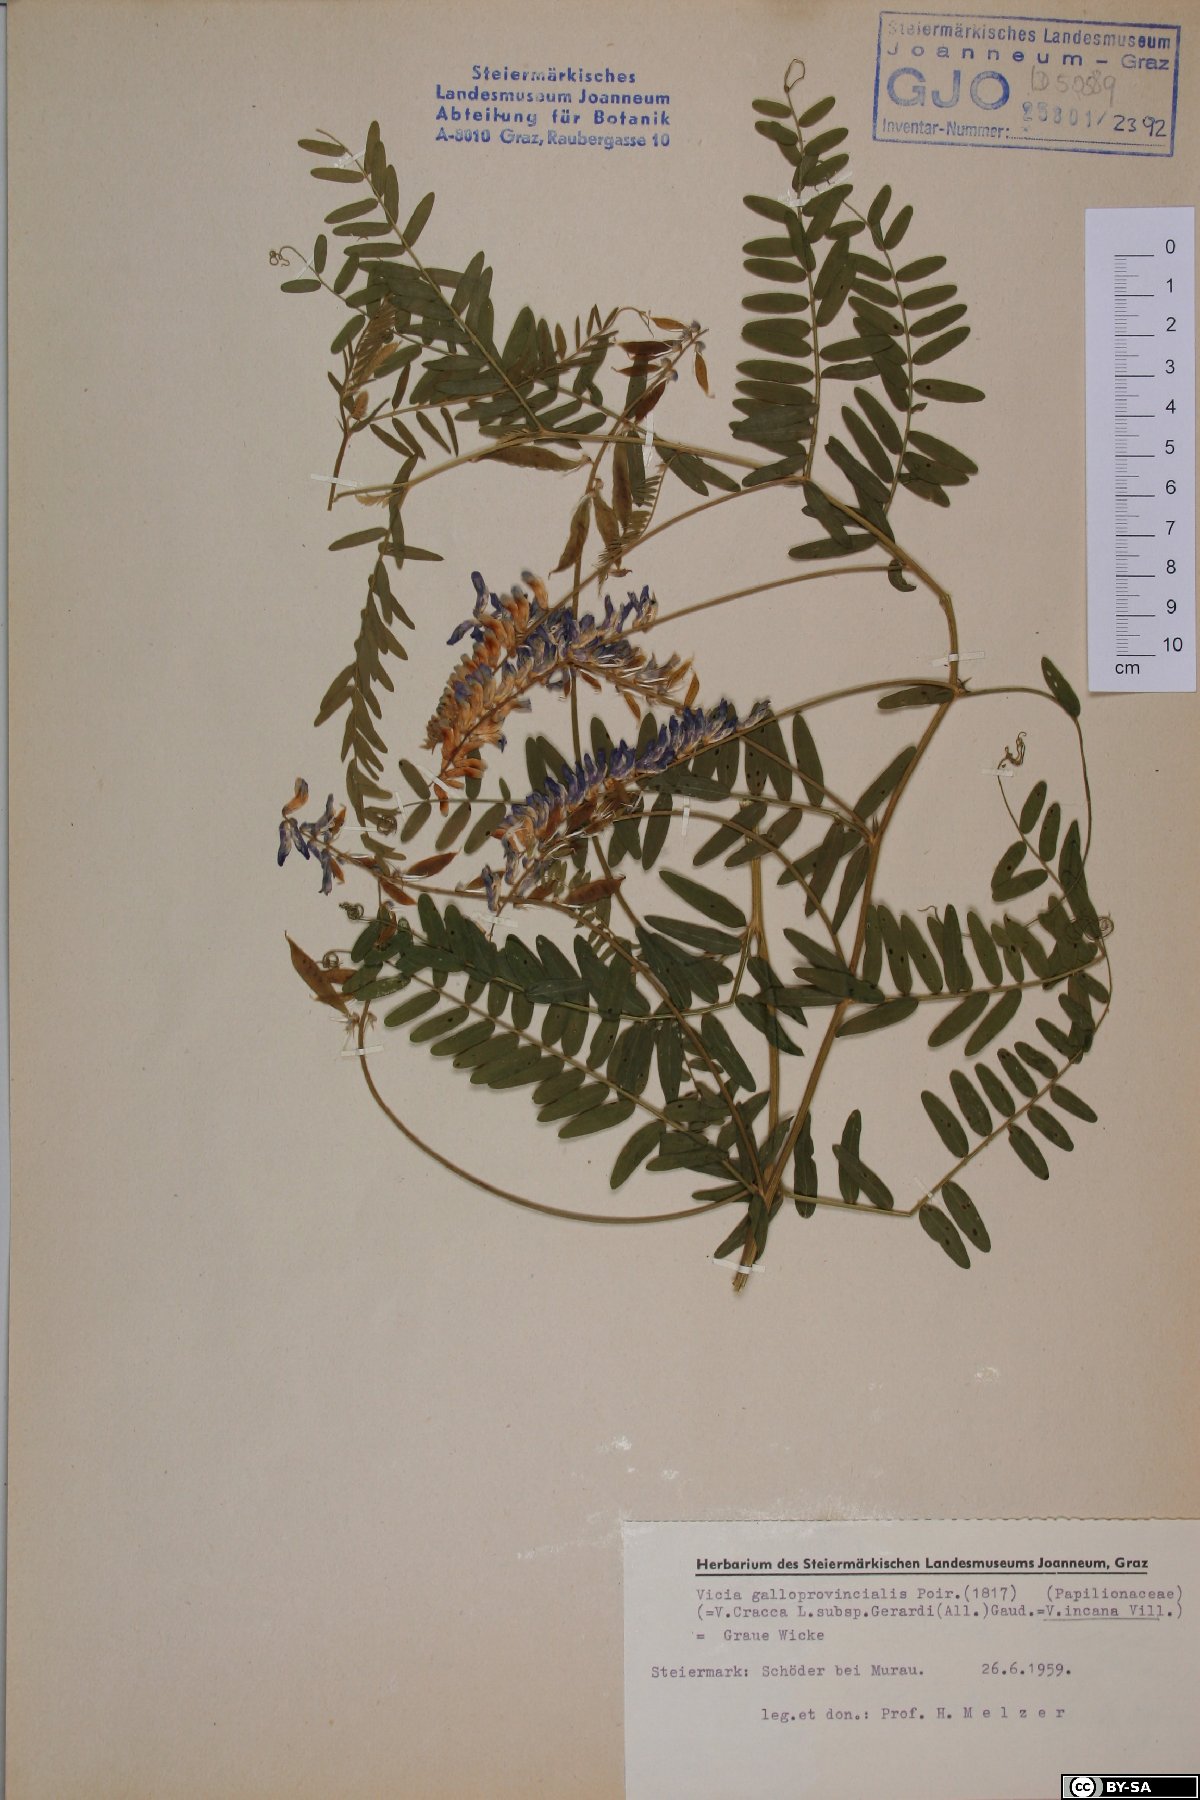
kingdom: Plantae
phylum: Tracheophyta
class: Magnoliopsida
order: Fabales
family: Fabaceae
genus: Vicia
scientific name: Vicia incana
